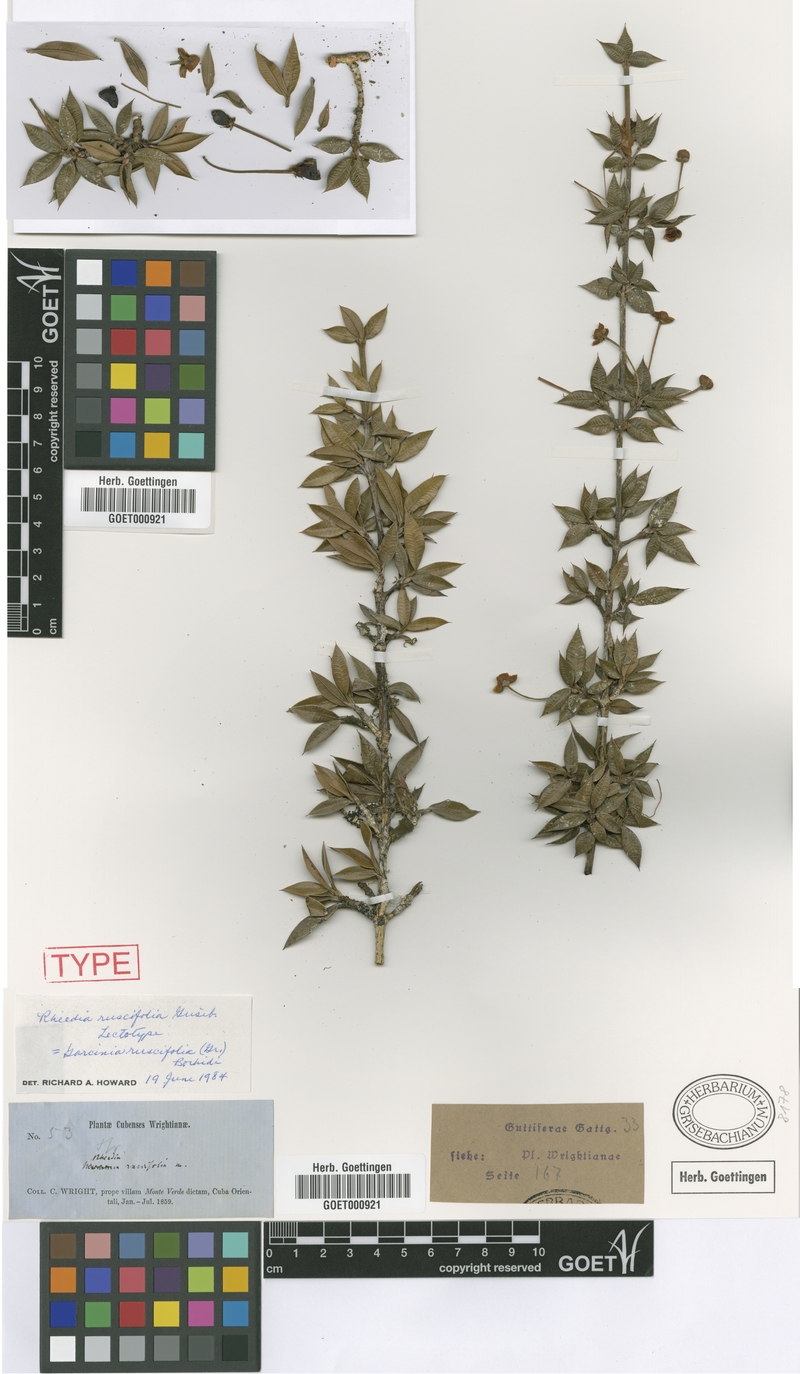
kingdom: Plantae
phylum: Tracheophyta
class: Magnoliopsida
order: Malpighiales
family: Clusiaceae
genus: Garcinia
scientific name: Garcinia ruscifolia
